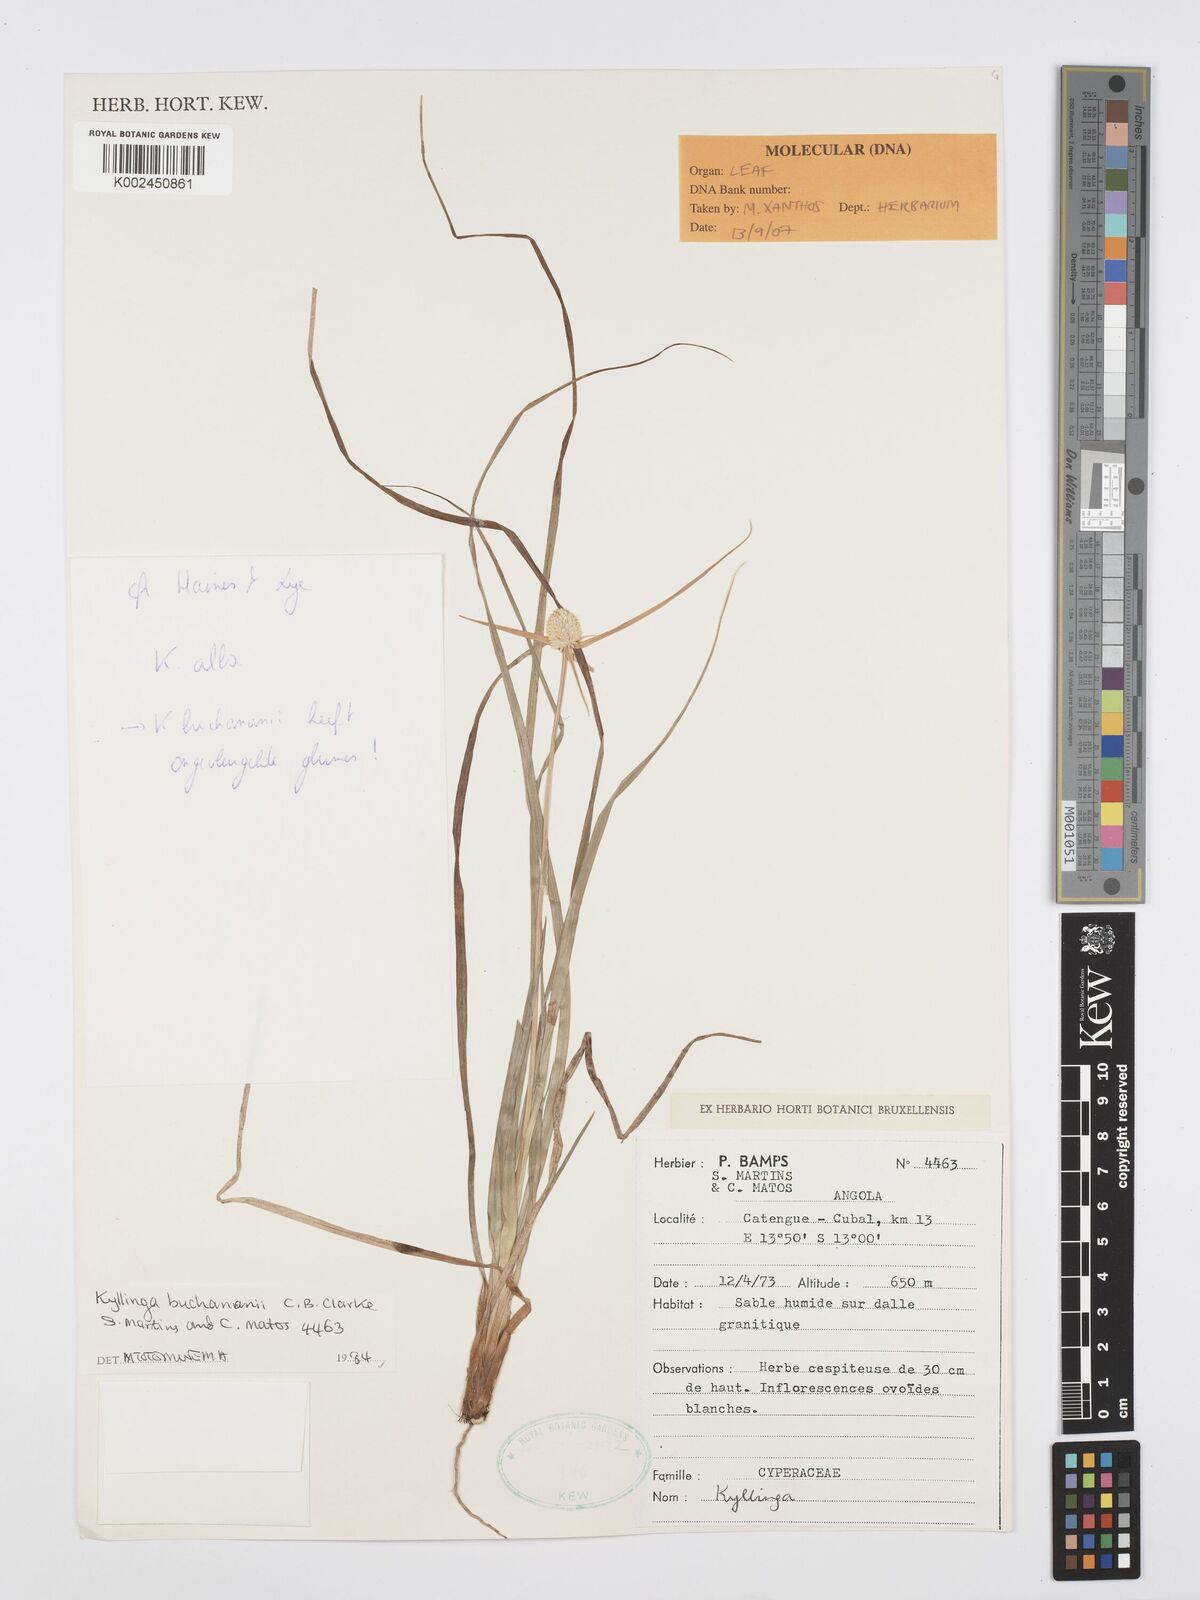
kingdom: Plantae
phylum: Tracheophyta
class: Liliopsida
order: Poales
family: Cyperaceae
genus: Cyperus
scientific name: Cyperus
